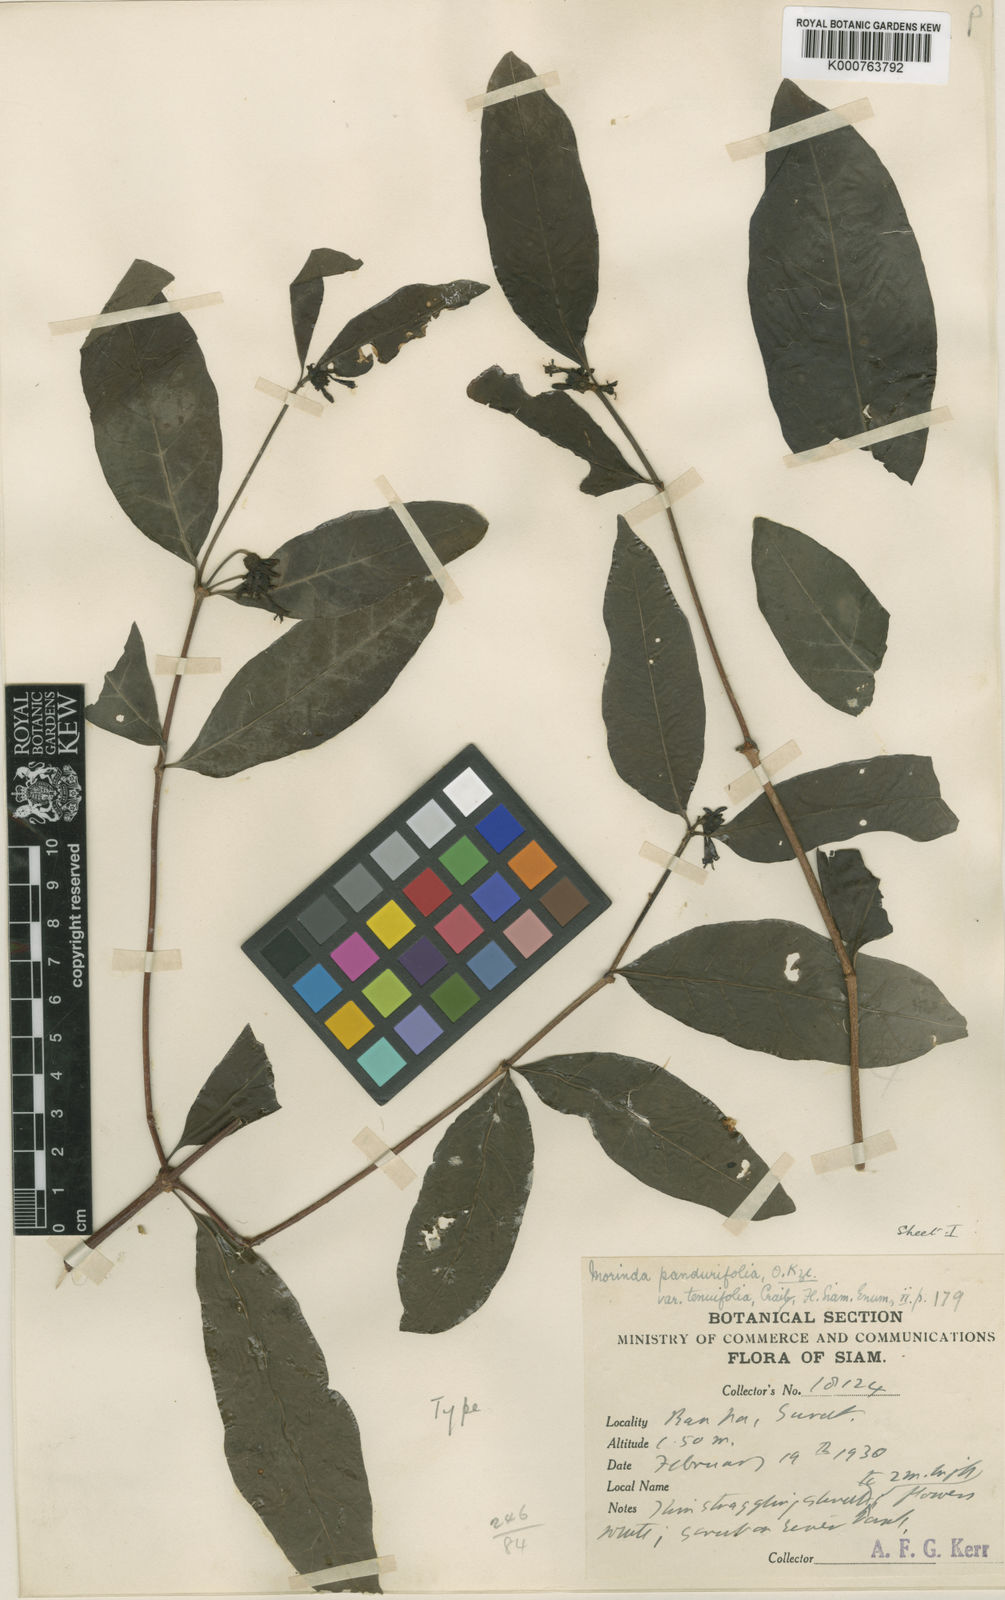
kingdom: Plantae
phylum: Tracheophyta
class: Magnoliopsida
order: Gentianales
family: Rubiaceae
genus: Morinda
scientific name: Morinda persicifolia
